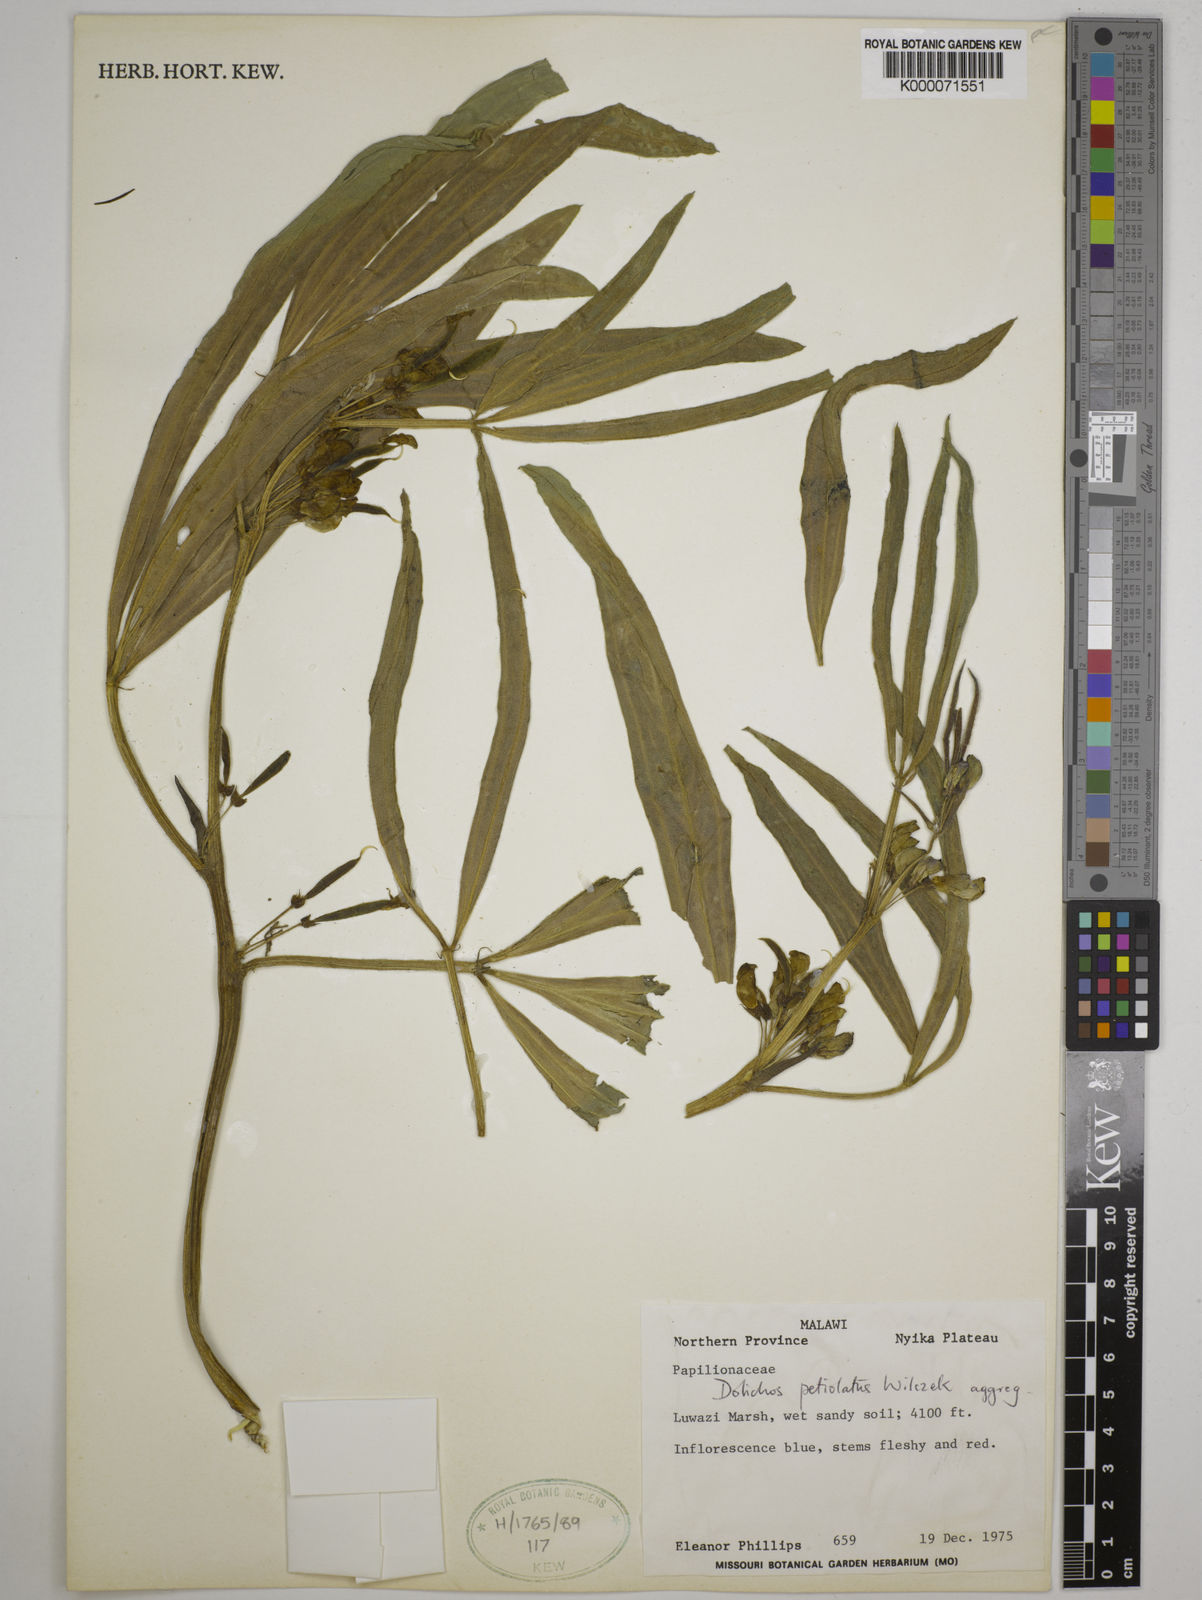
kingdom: Plantae
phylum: Tracheophyta
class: Magnoliopsida
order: Fabales
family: Fabaceae
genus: Dolichos
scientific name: Dolichos petiolatus
